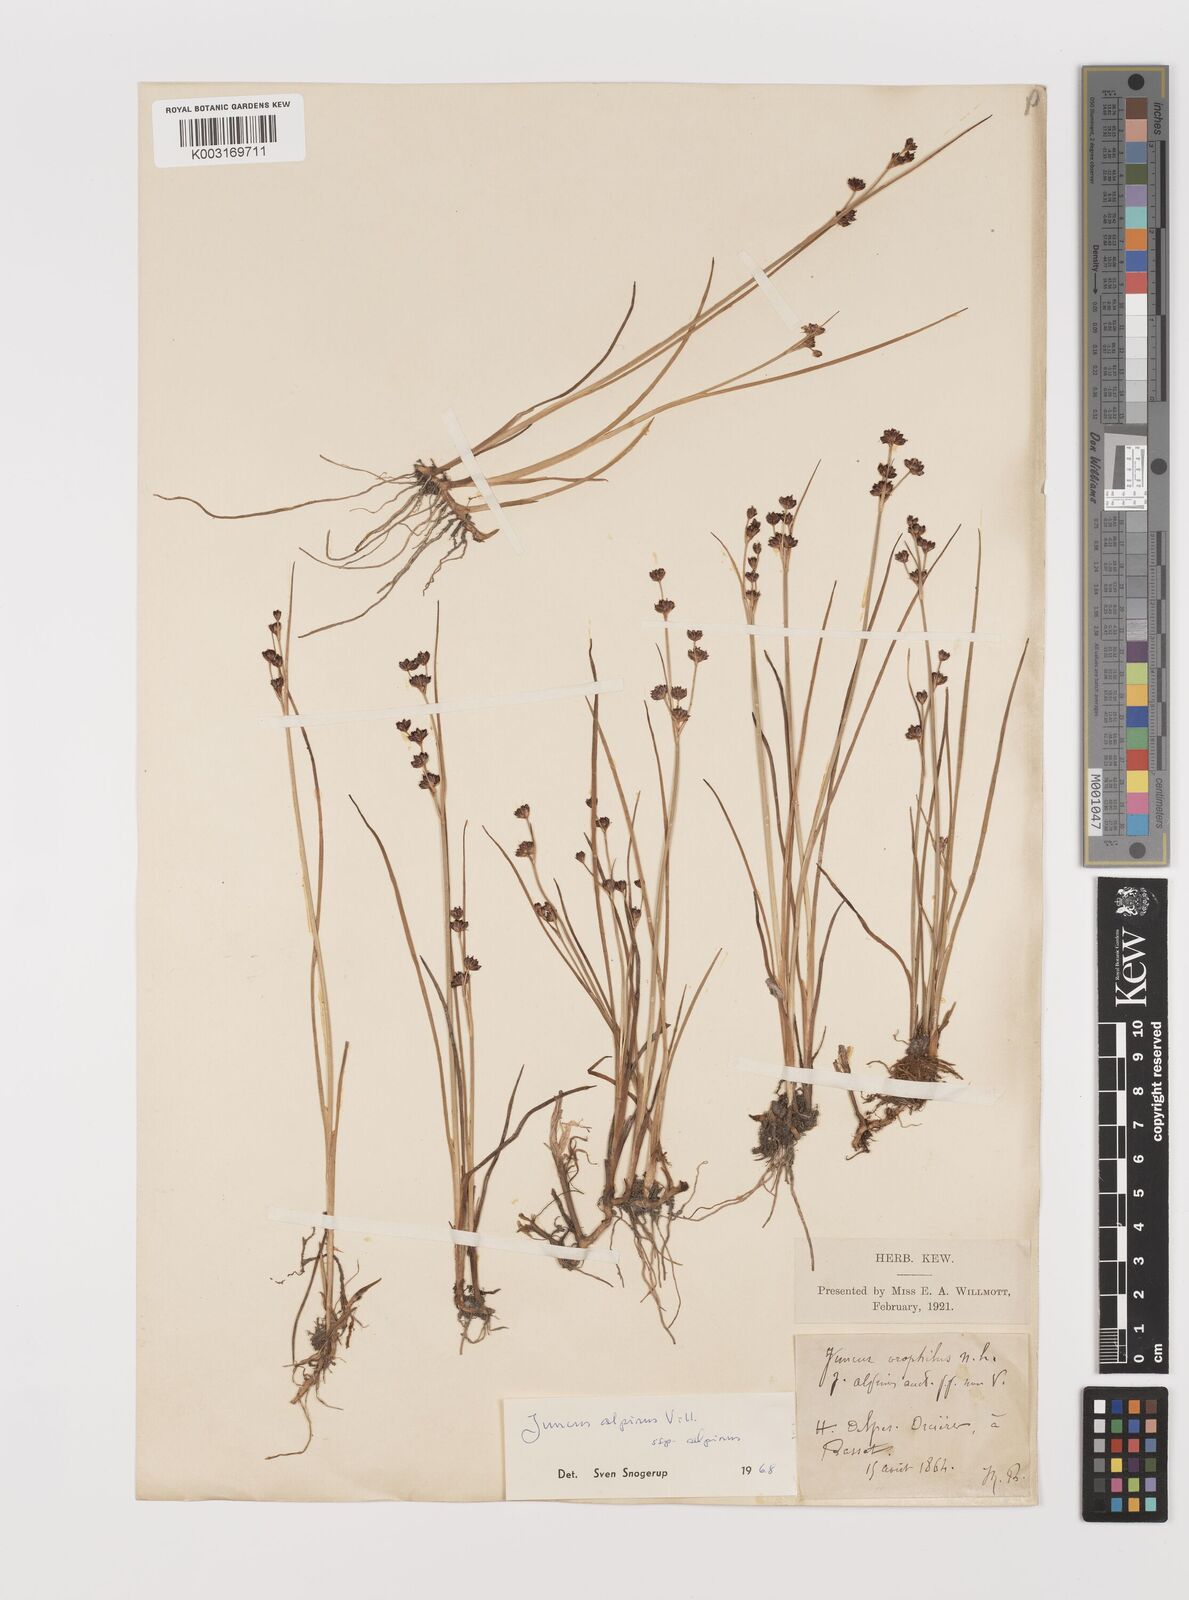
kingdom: Plantae
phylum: Tracheophyta
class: Liliopsida
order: Poales
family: Juncaceae
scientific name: Juncaceae
